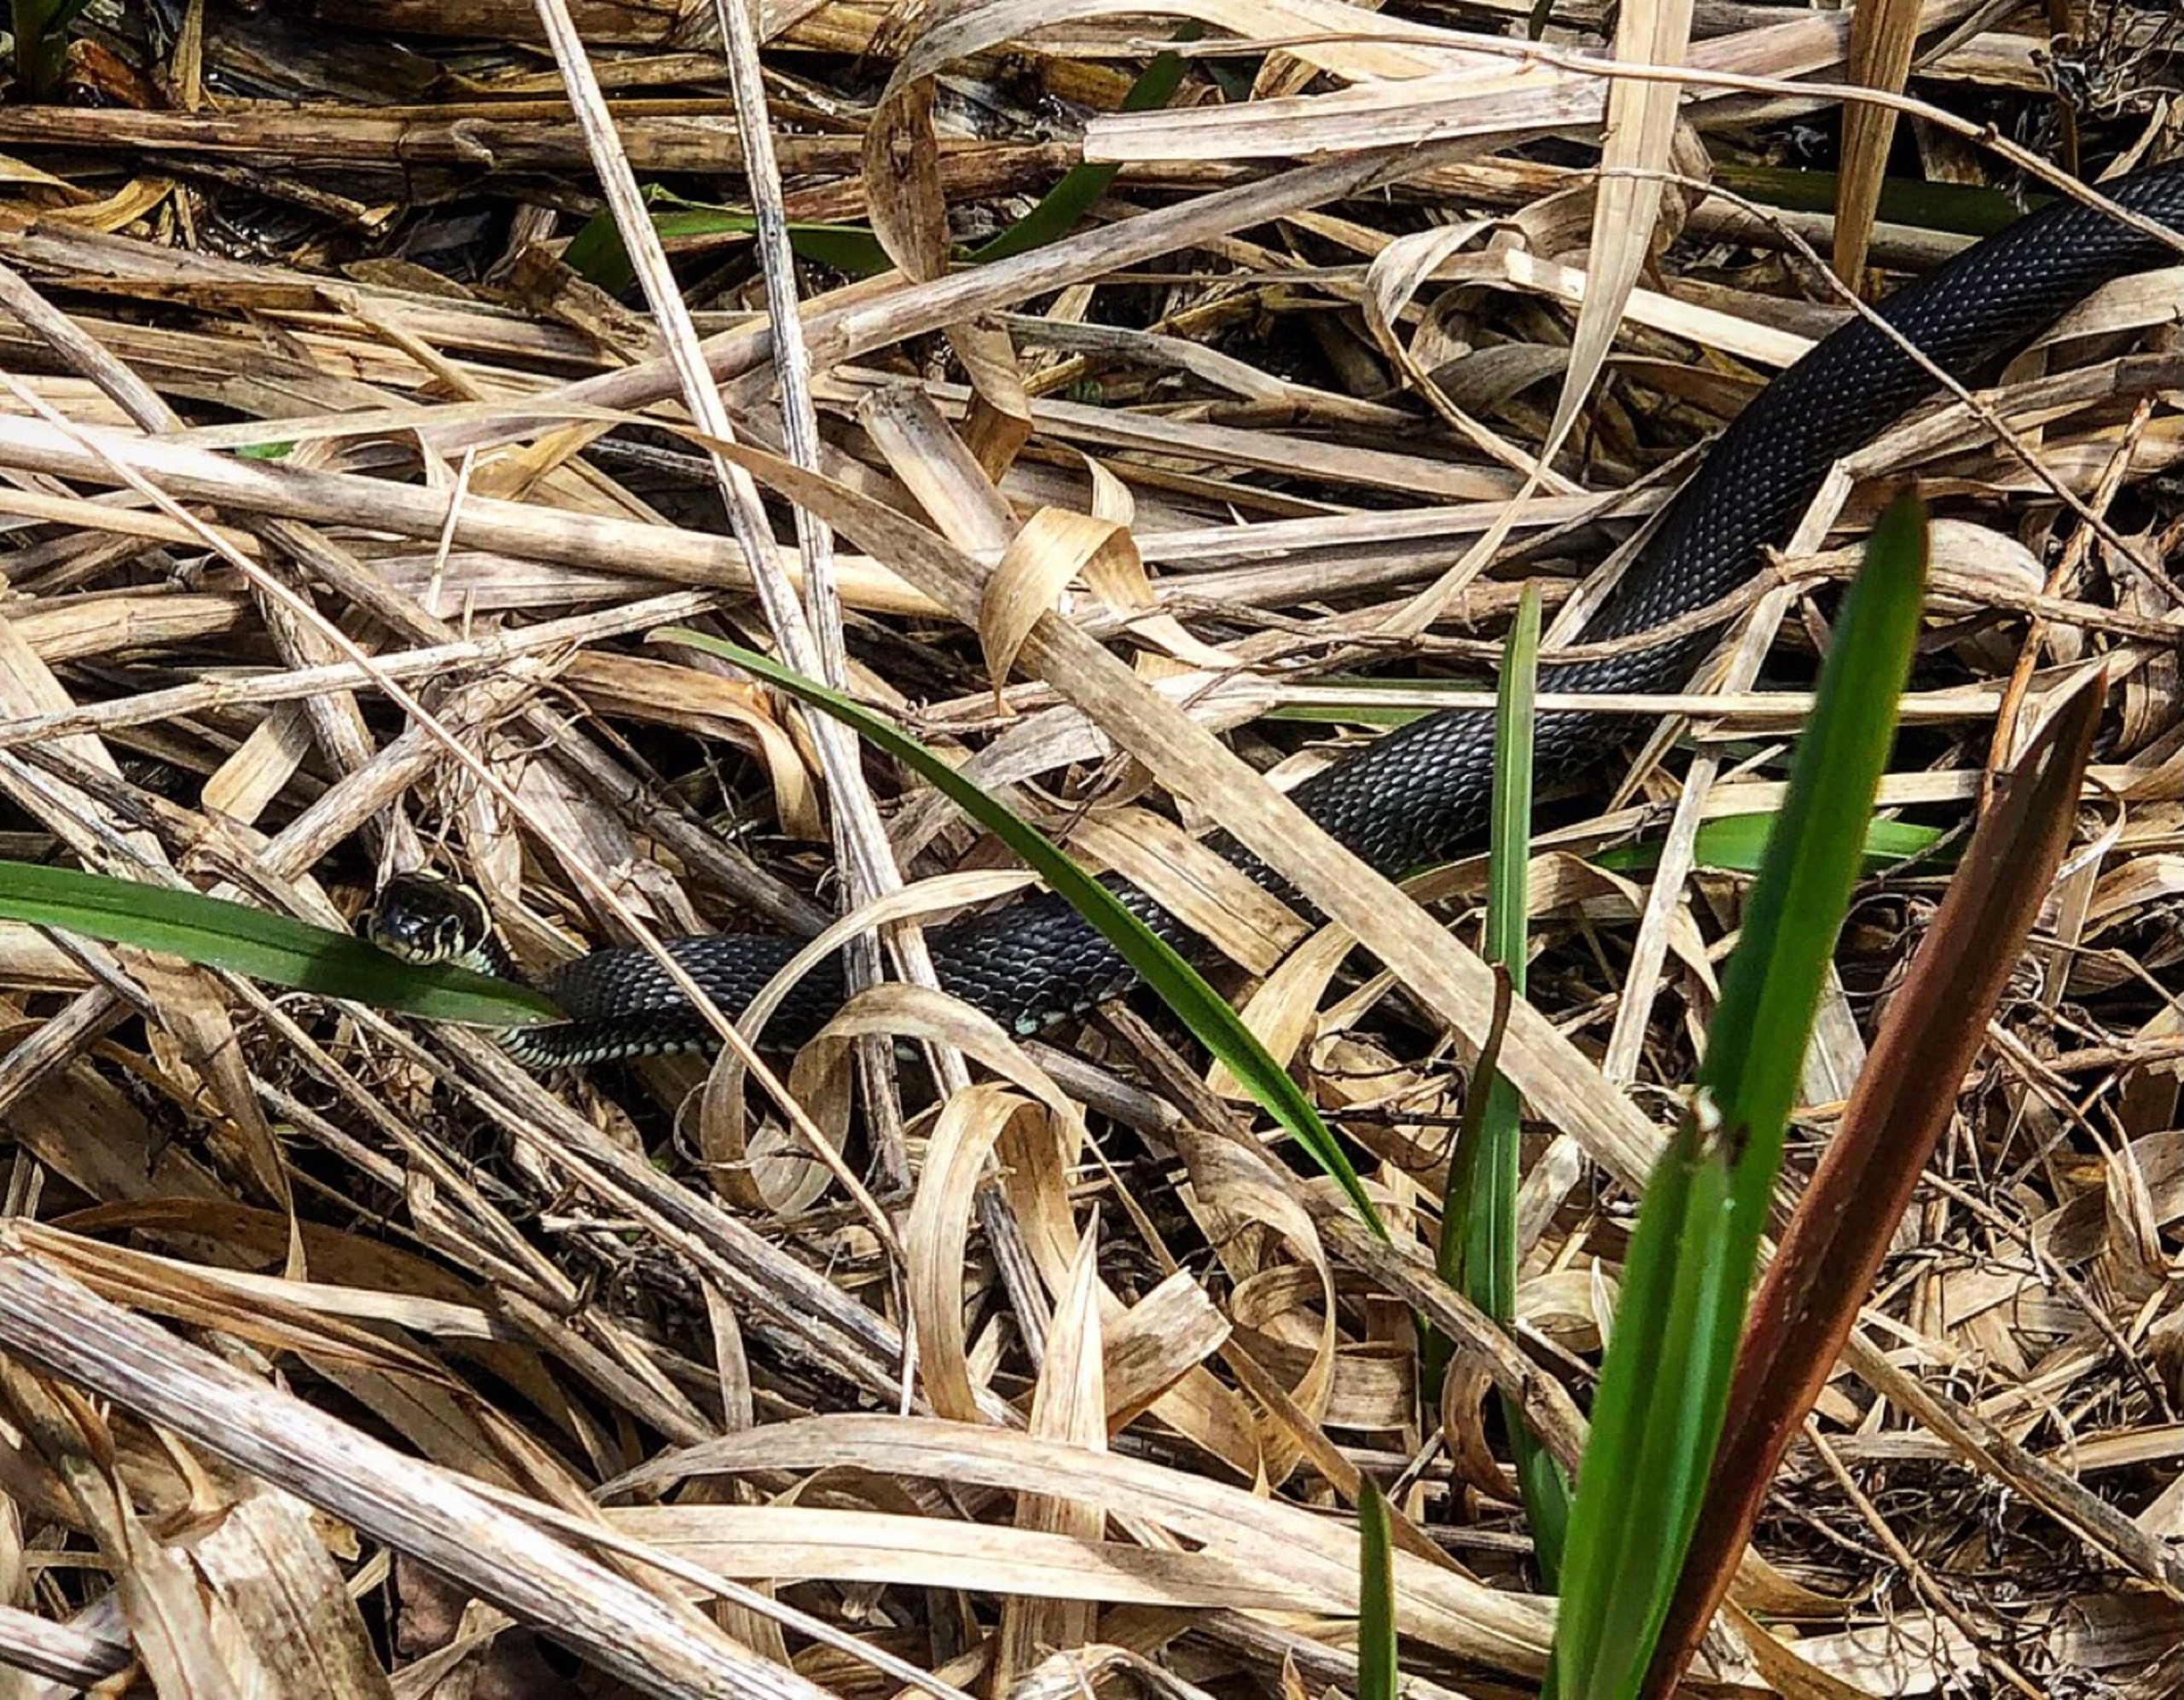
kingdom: Animalia
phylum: Chordata
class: Squamata
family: Colubridae
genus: Natrix
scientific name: Natrix natrix
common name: Snog
